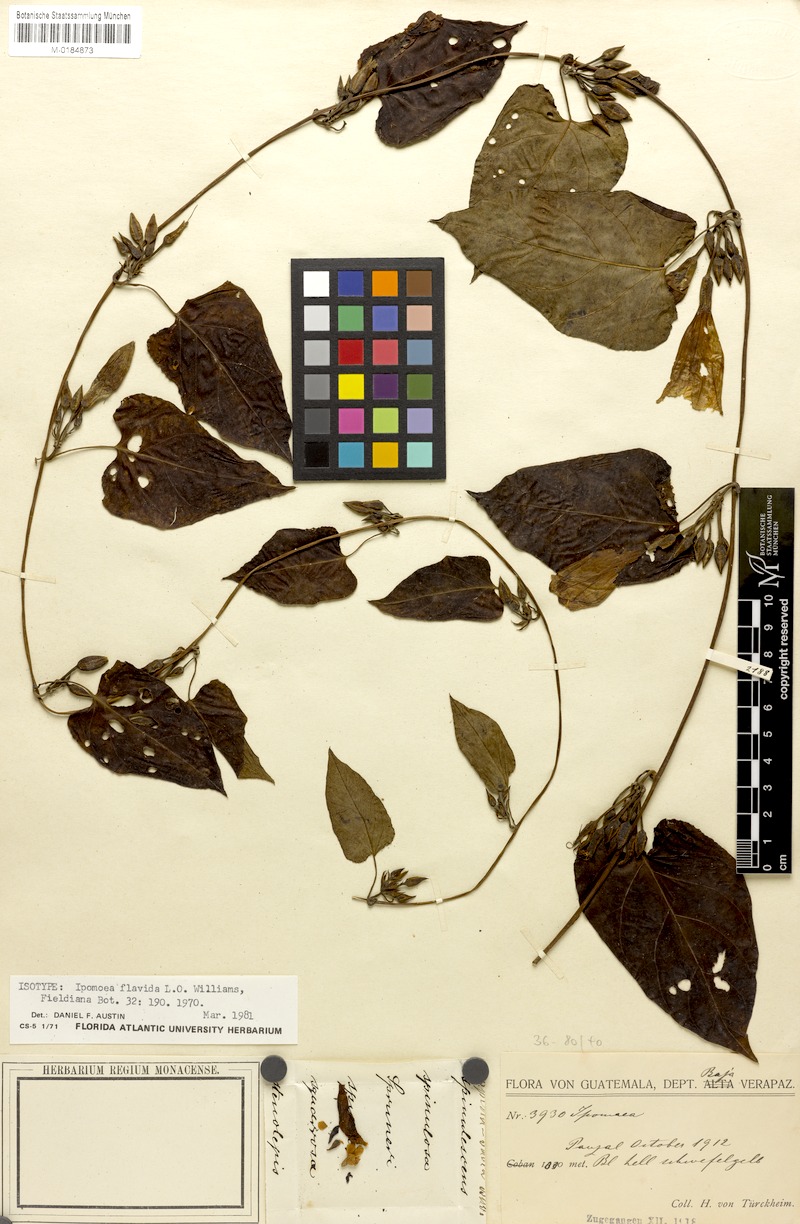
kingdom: Plantae
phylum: Tracheophyta
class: Magnoliopsida
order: Solanales
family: Convolvulaceae
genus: Ipomoea
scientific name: Ipomoea lindenii
